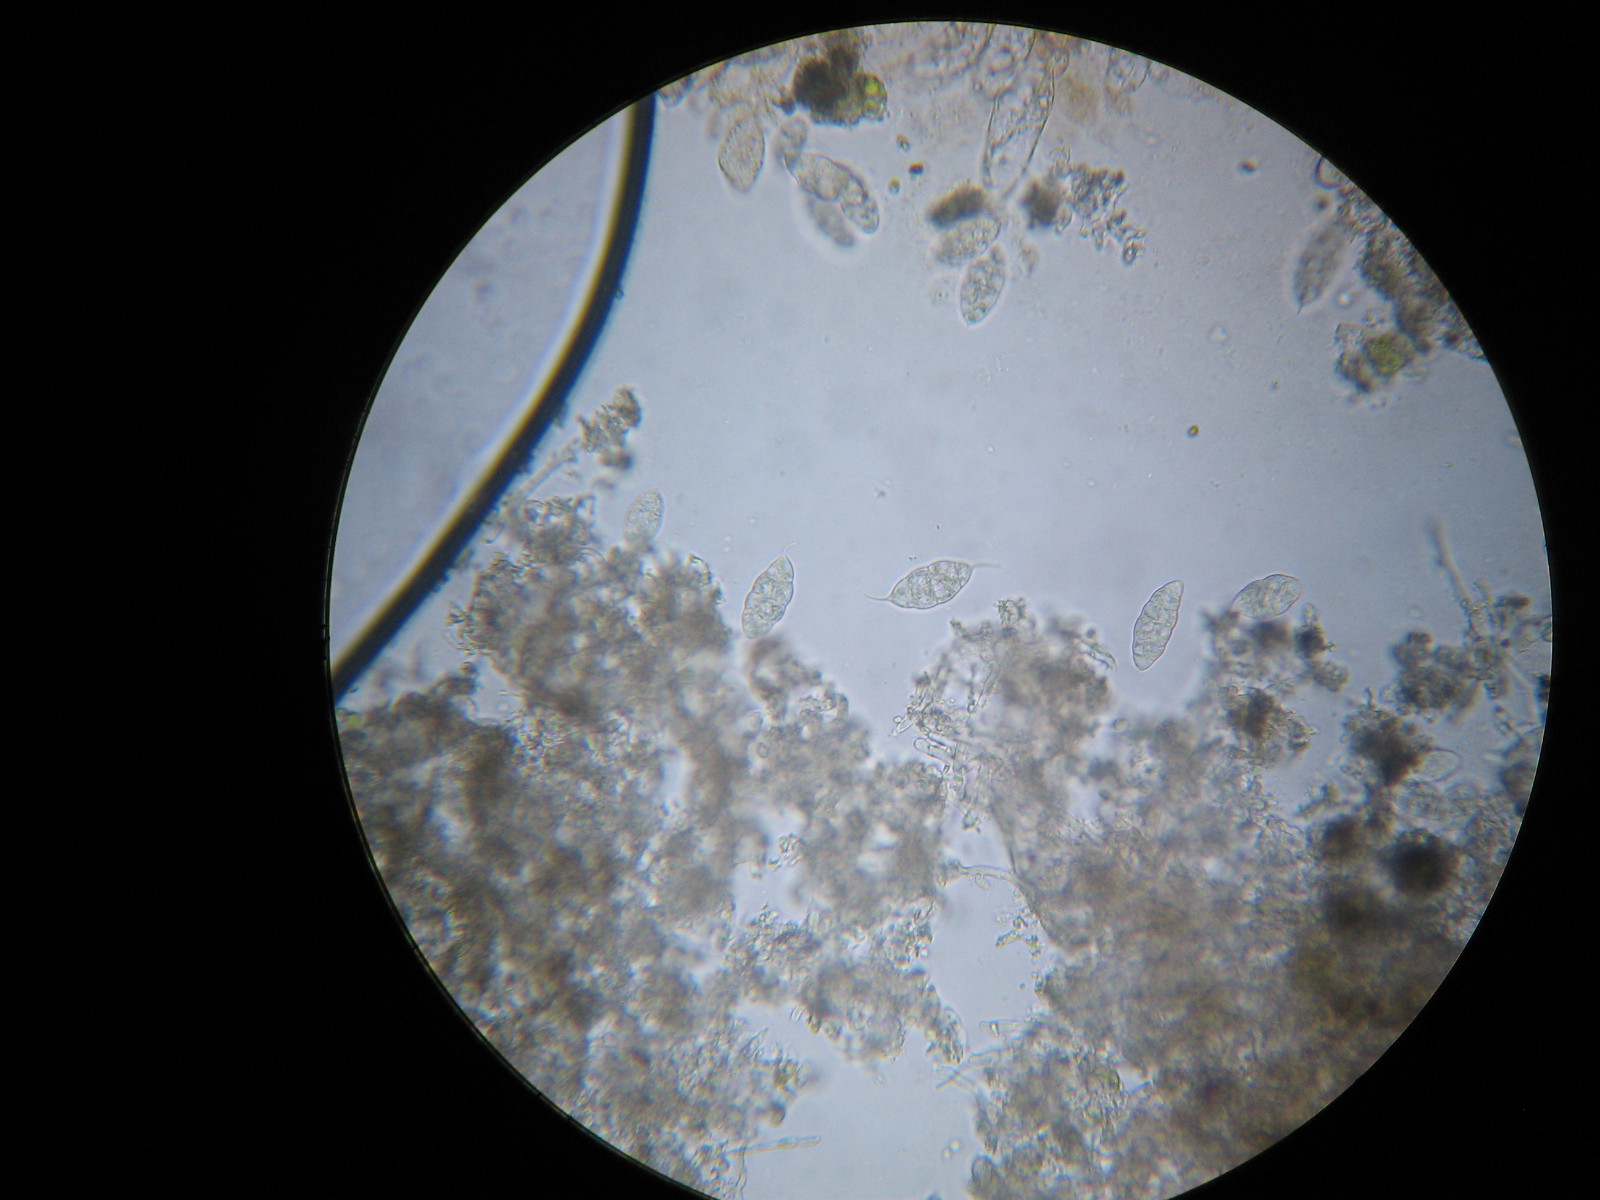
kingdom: Fungi
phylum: Ascomycota
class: Sordariomycetes
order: Hypocreales
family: Bionectriaceae
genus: Paranectria
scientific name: Paranectria oropensis
